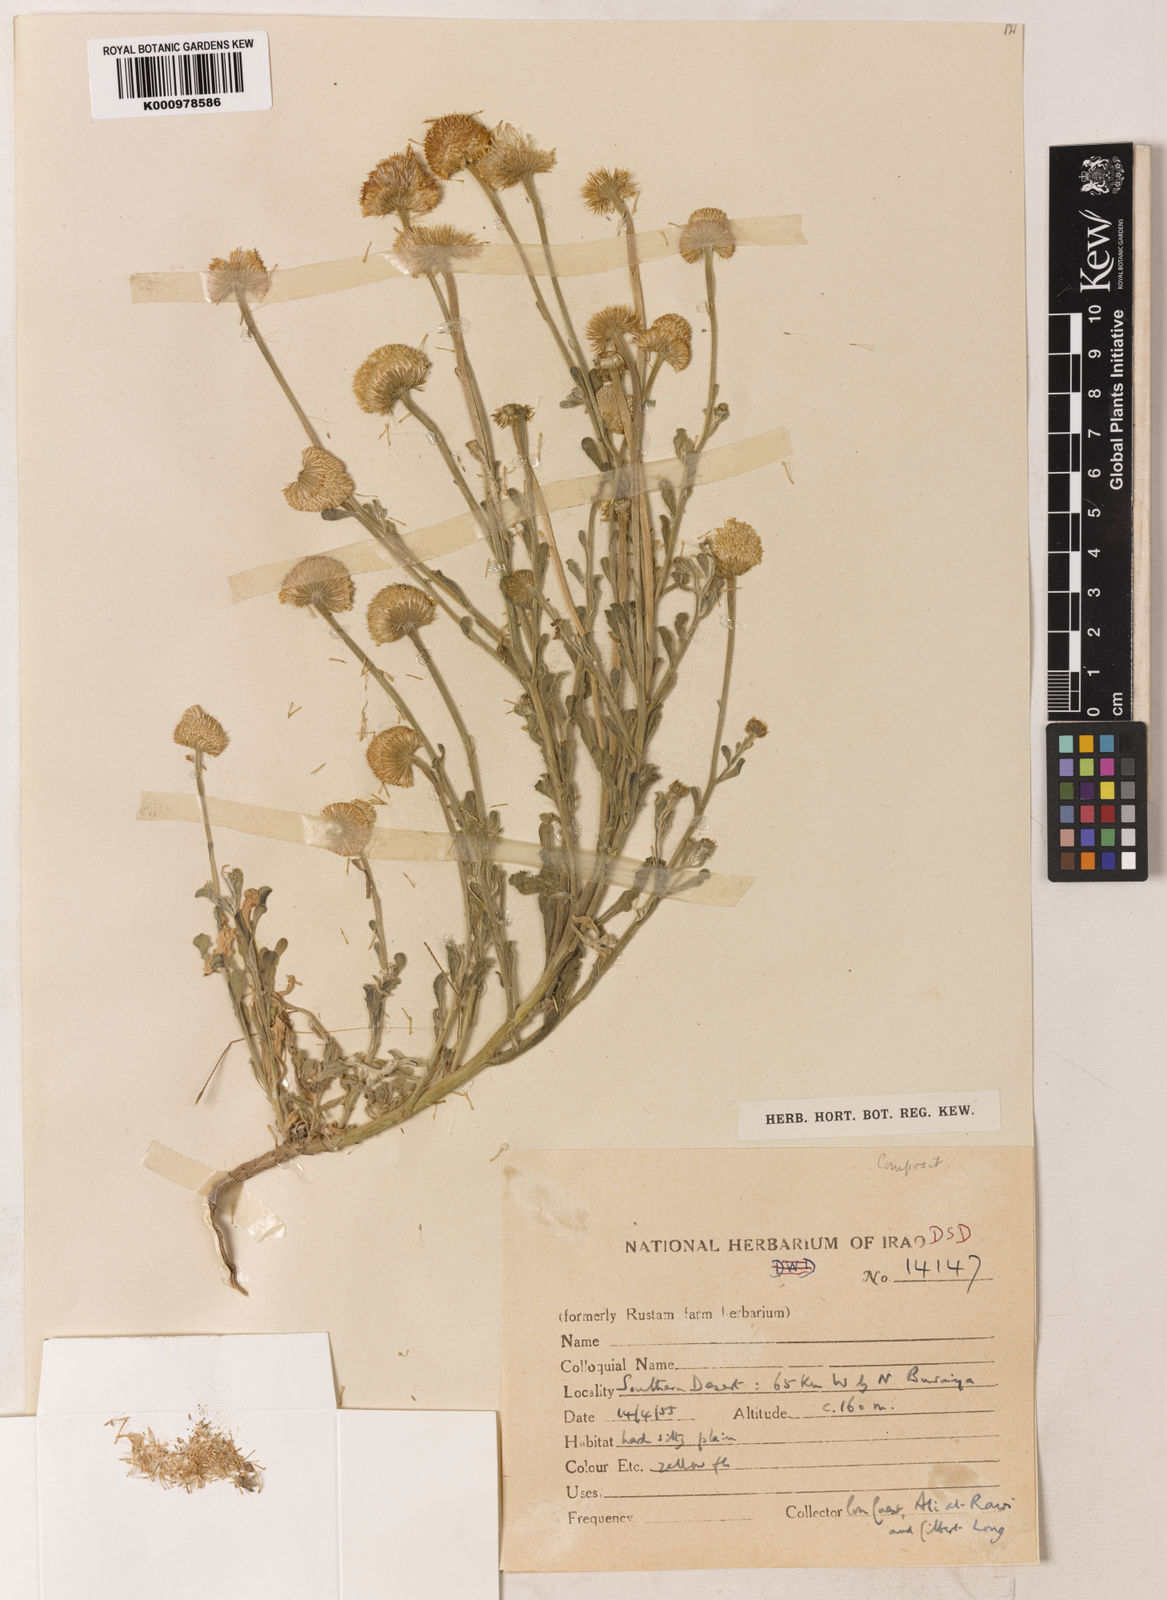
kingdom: Plantae
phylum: Tracheophyta
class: Magnoliopsida
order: Asterales
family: Asteraceae
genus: Pulicaria
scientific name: Pulicaria guestii
